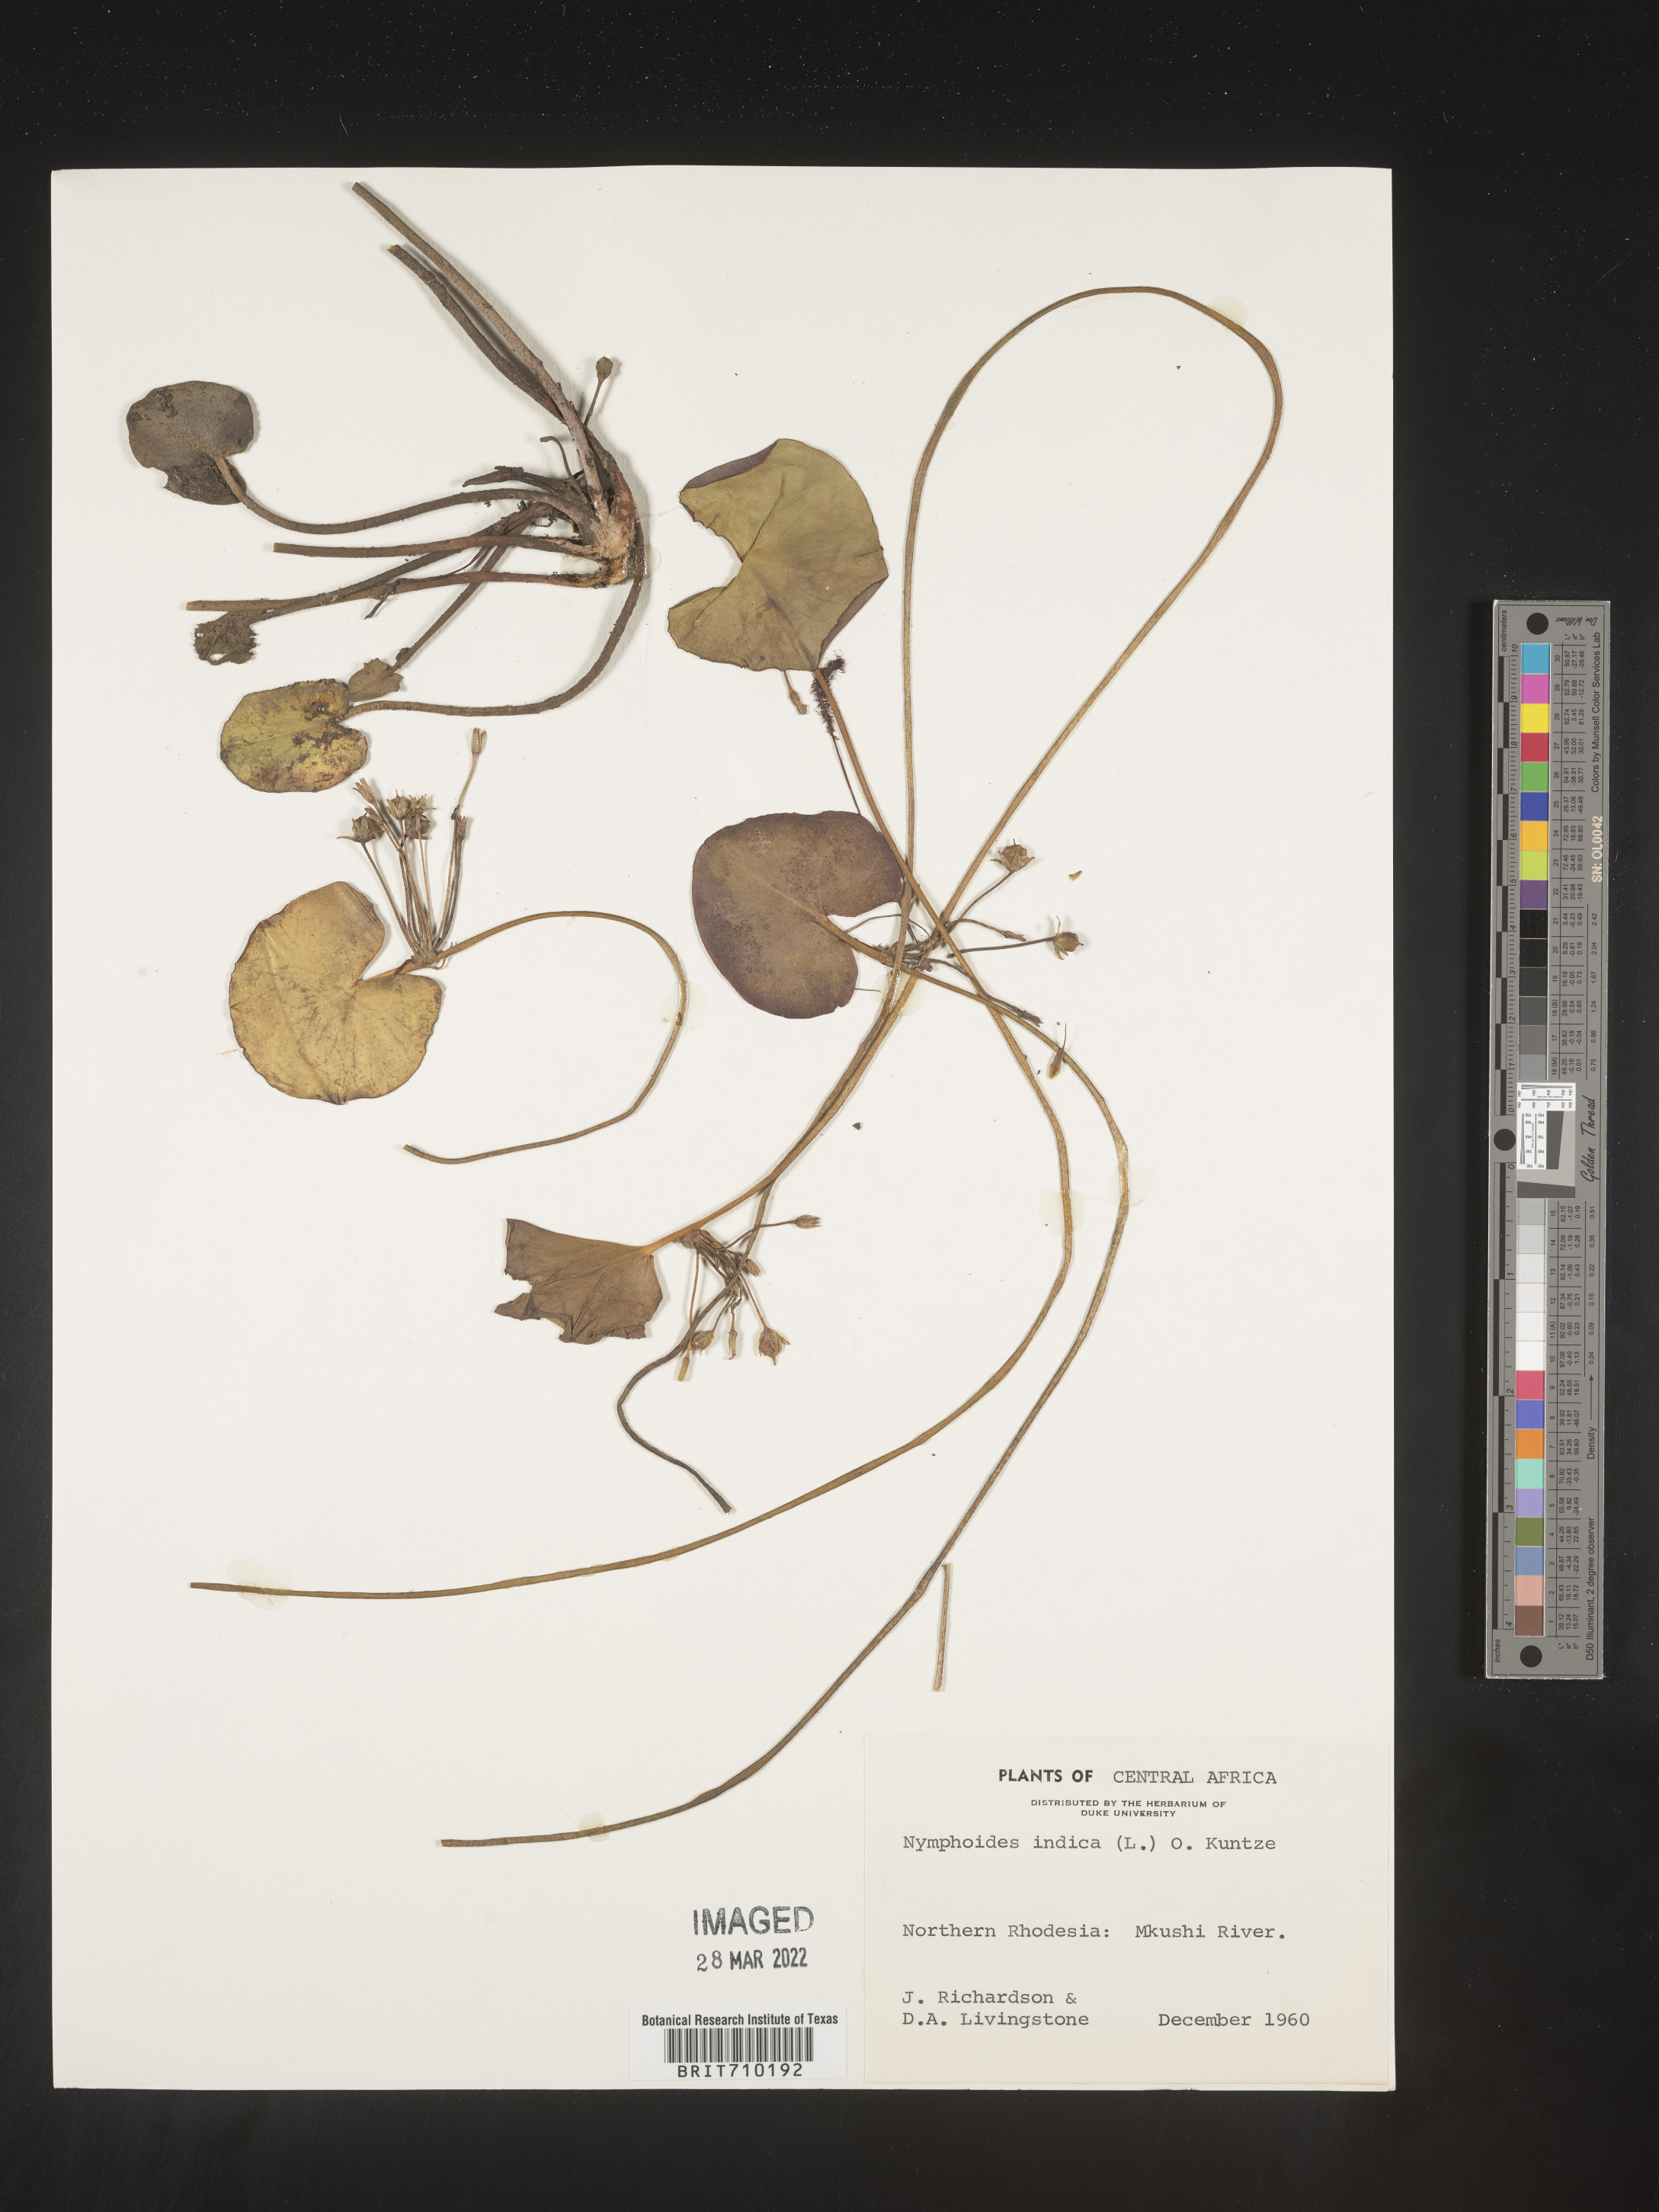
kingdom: Plantae
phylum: Tracheophyta
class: Magnoliopsida
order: Asterales
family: Menyanthaceae
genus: Nymphoides
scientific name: Nymphoides
